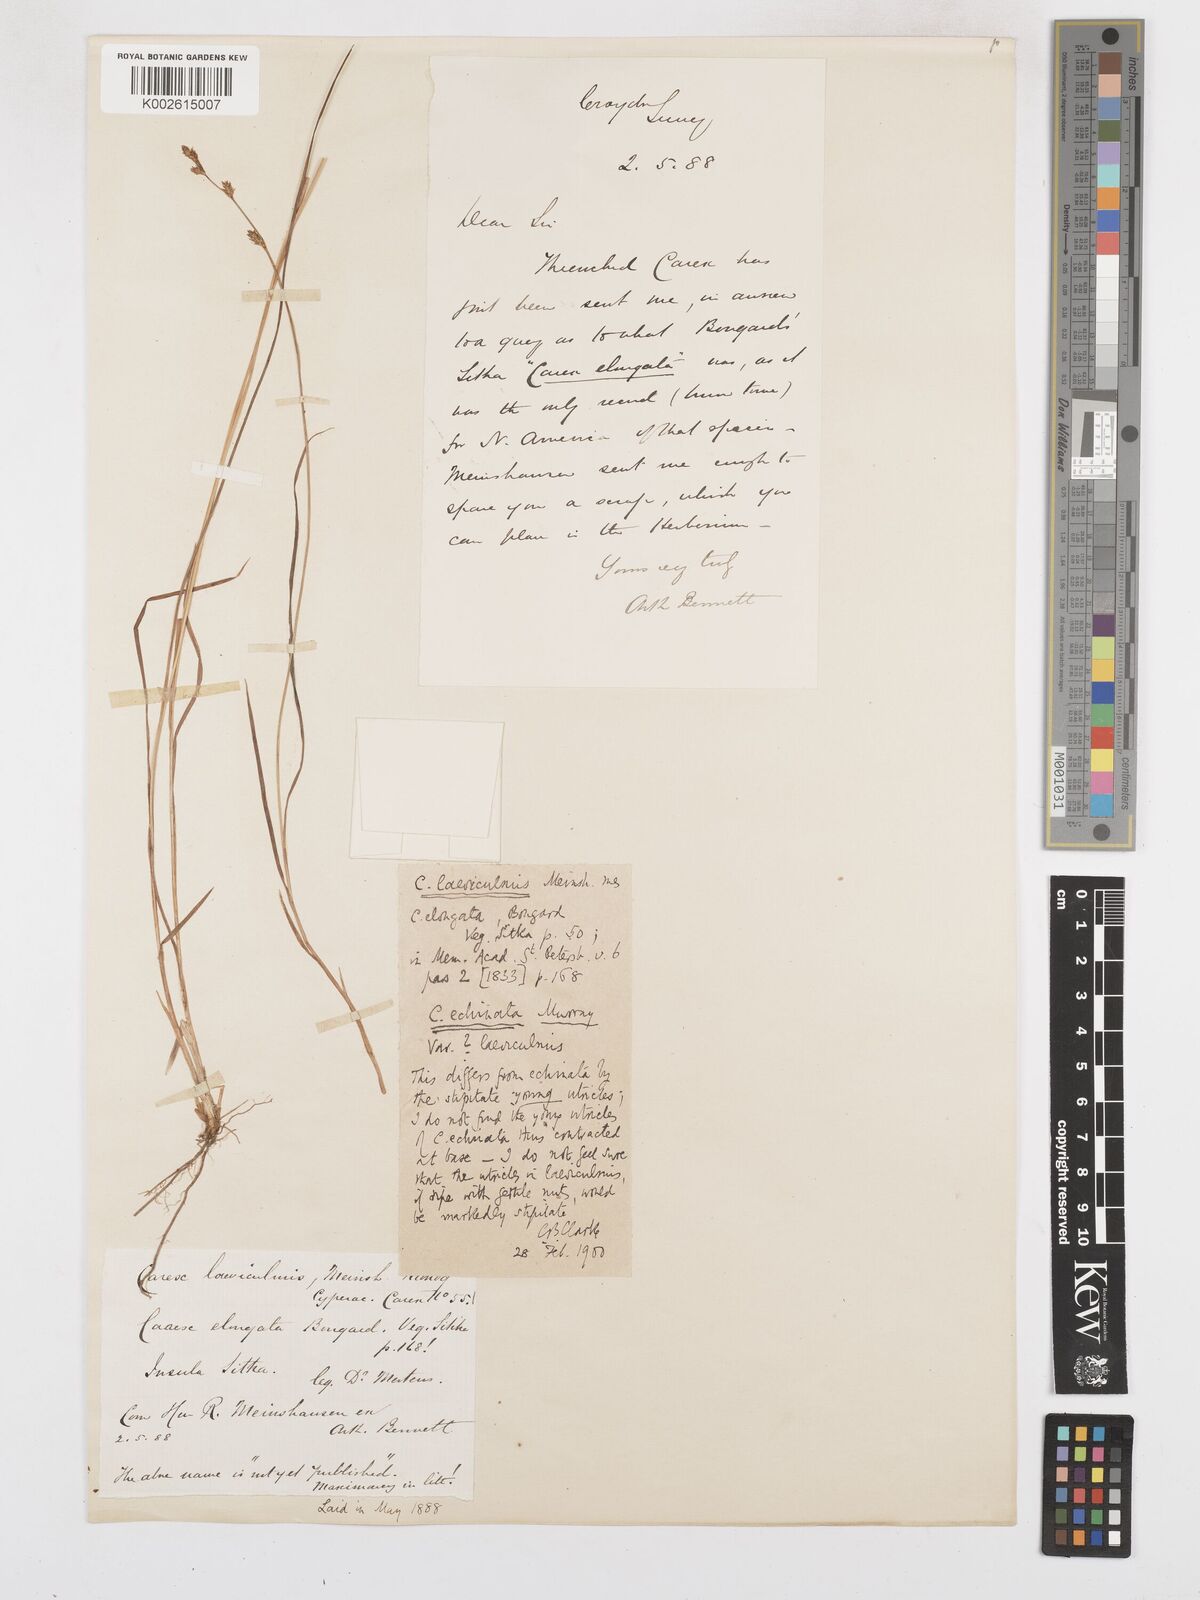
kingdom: Plantae
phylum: Tracheophyta
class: Liliopsida
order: Poales
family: Cyperaceae
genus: Carex
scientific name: Carex laeviculmis
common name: Smooth sedge
